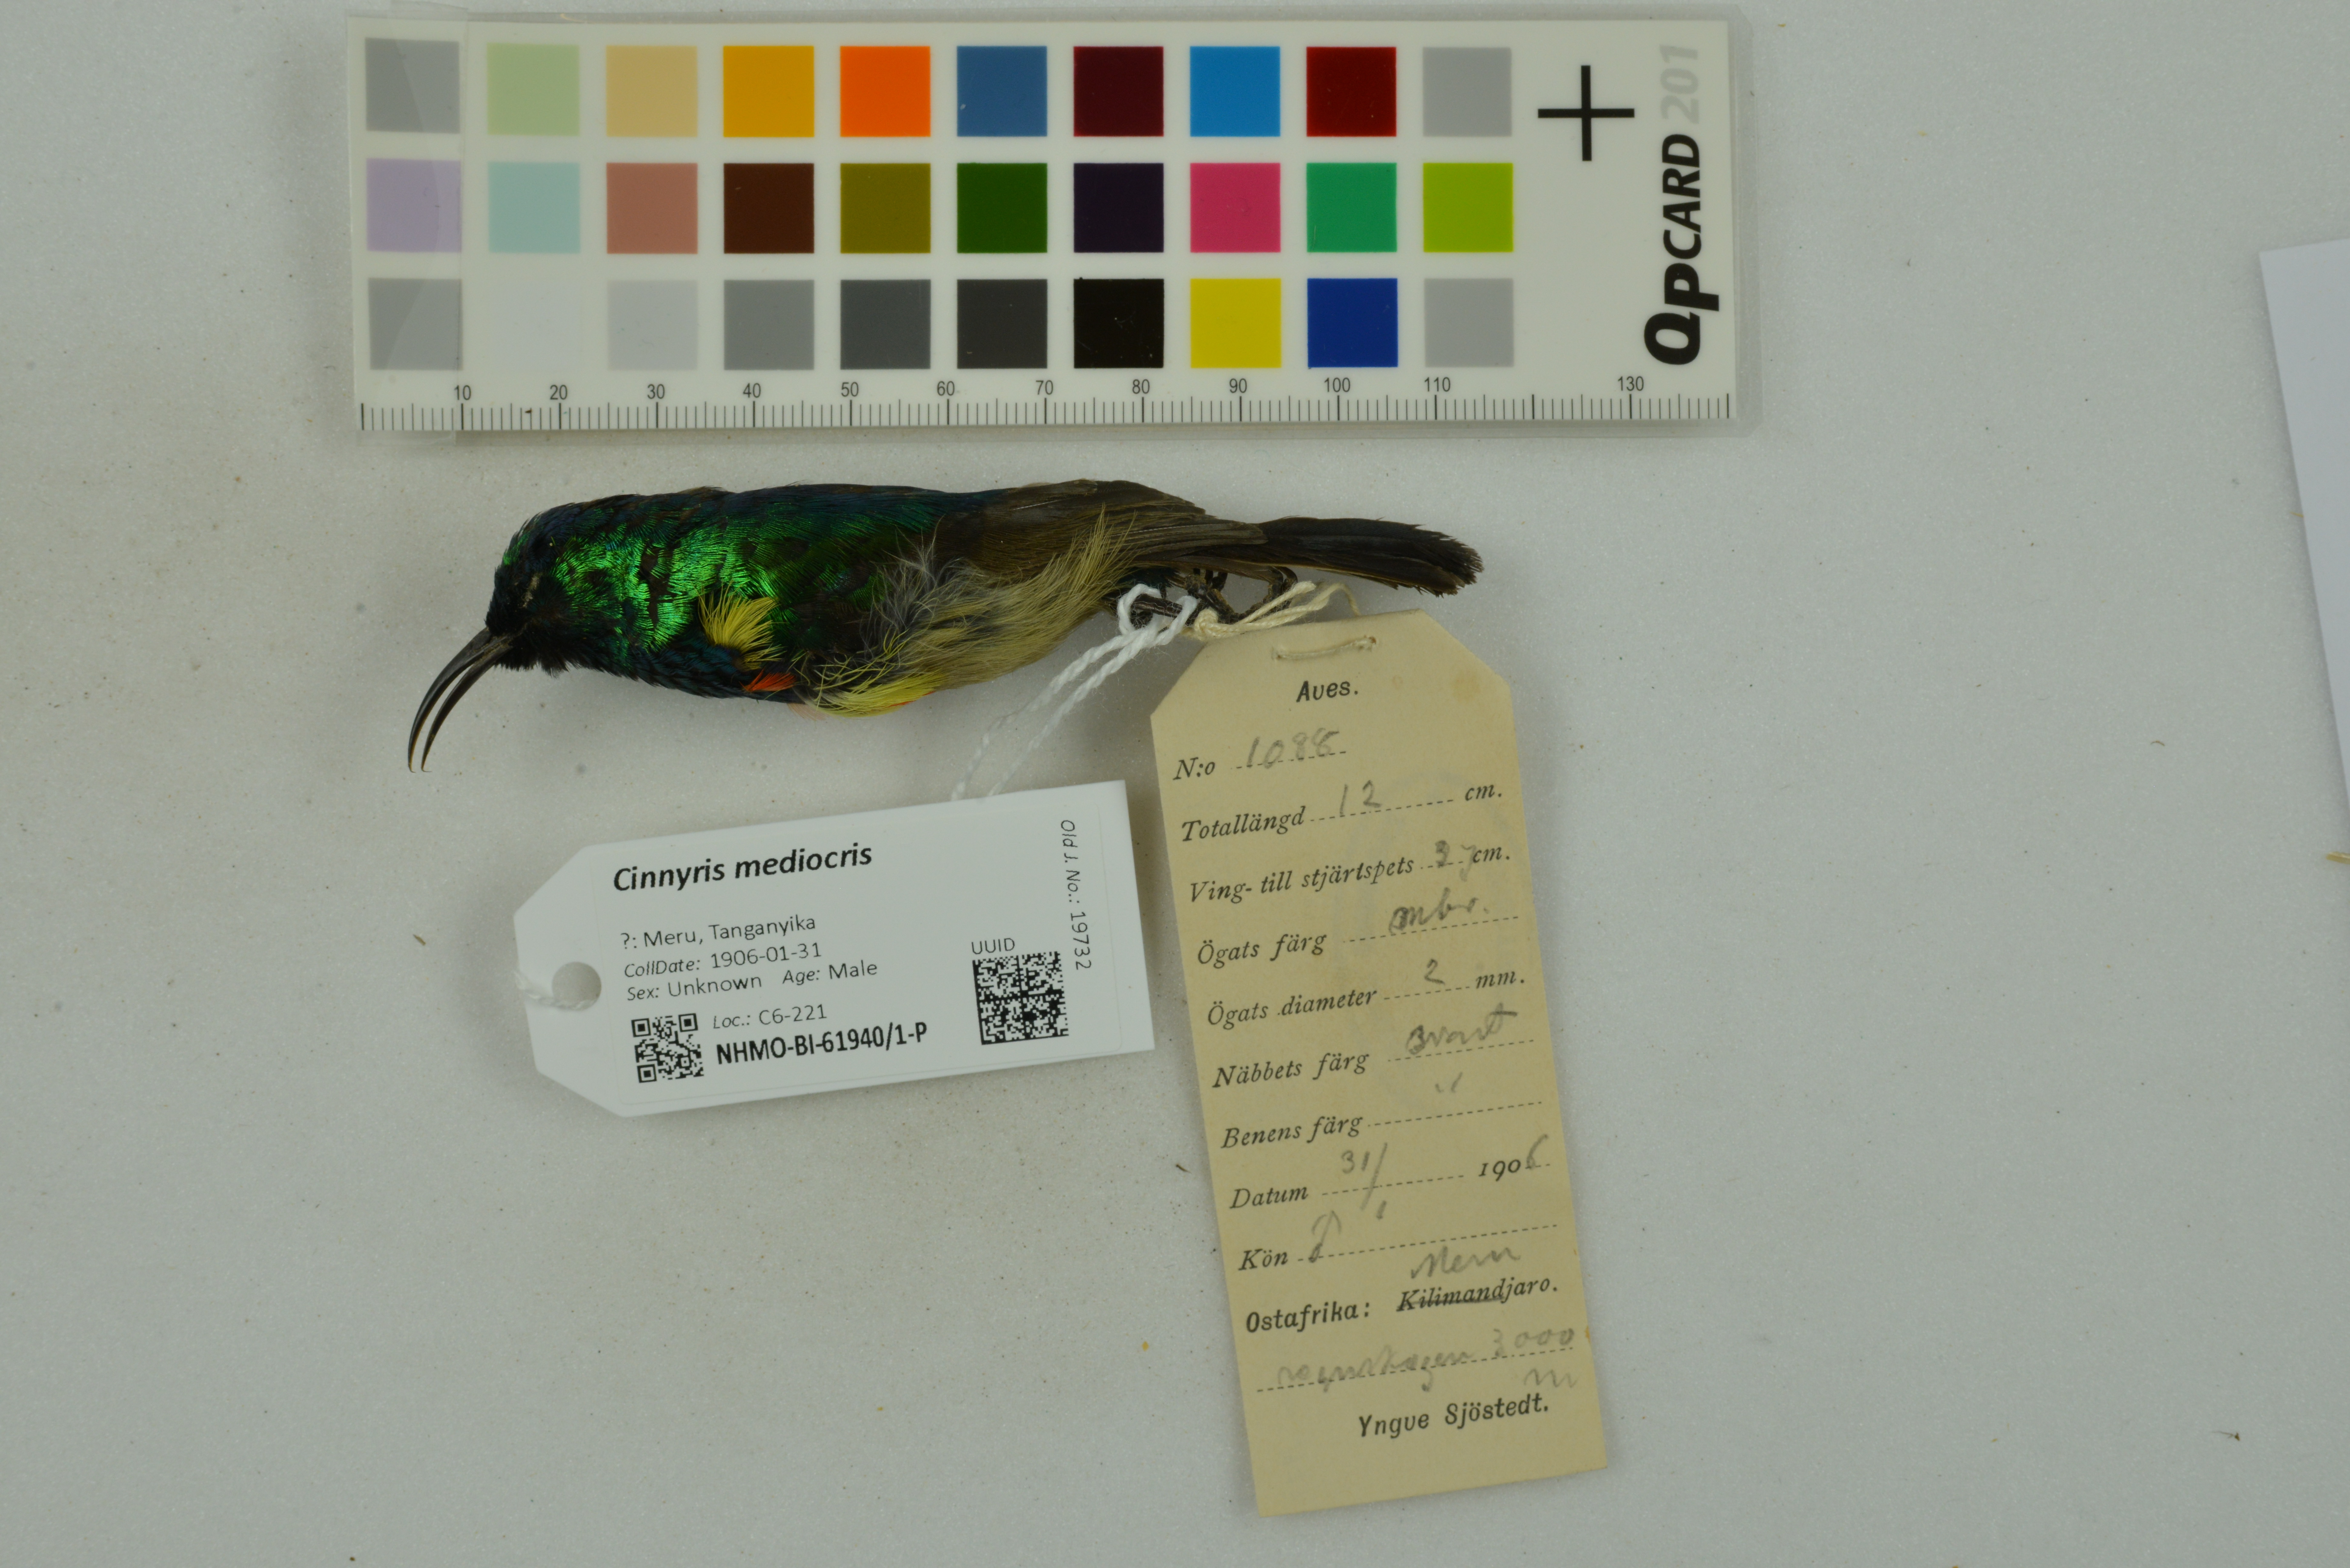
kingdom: Animalia
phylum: Chordata
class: Aves
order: Passeriformes
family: Nectariniidae
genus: Cinnyris
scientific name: Cinnyris mediocris
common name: Eastern double-collared sunbird
